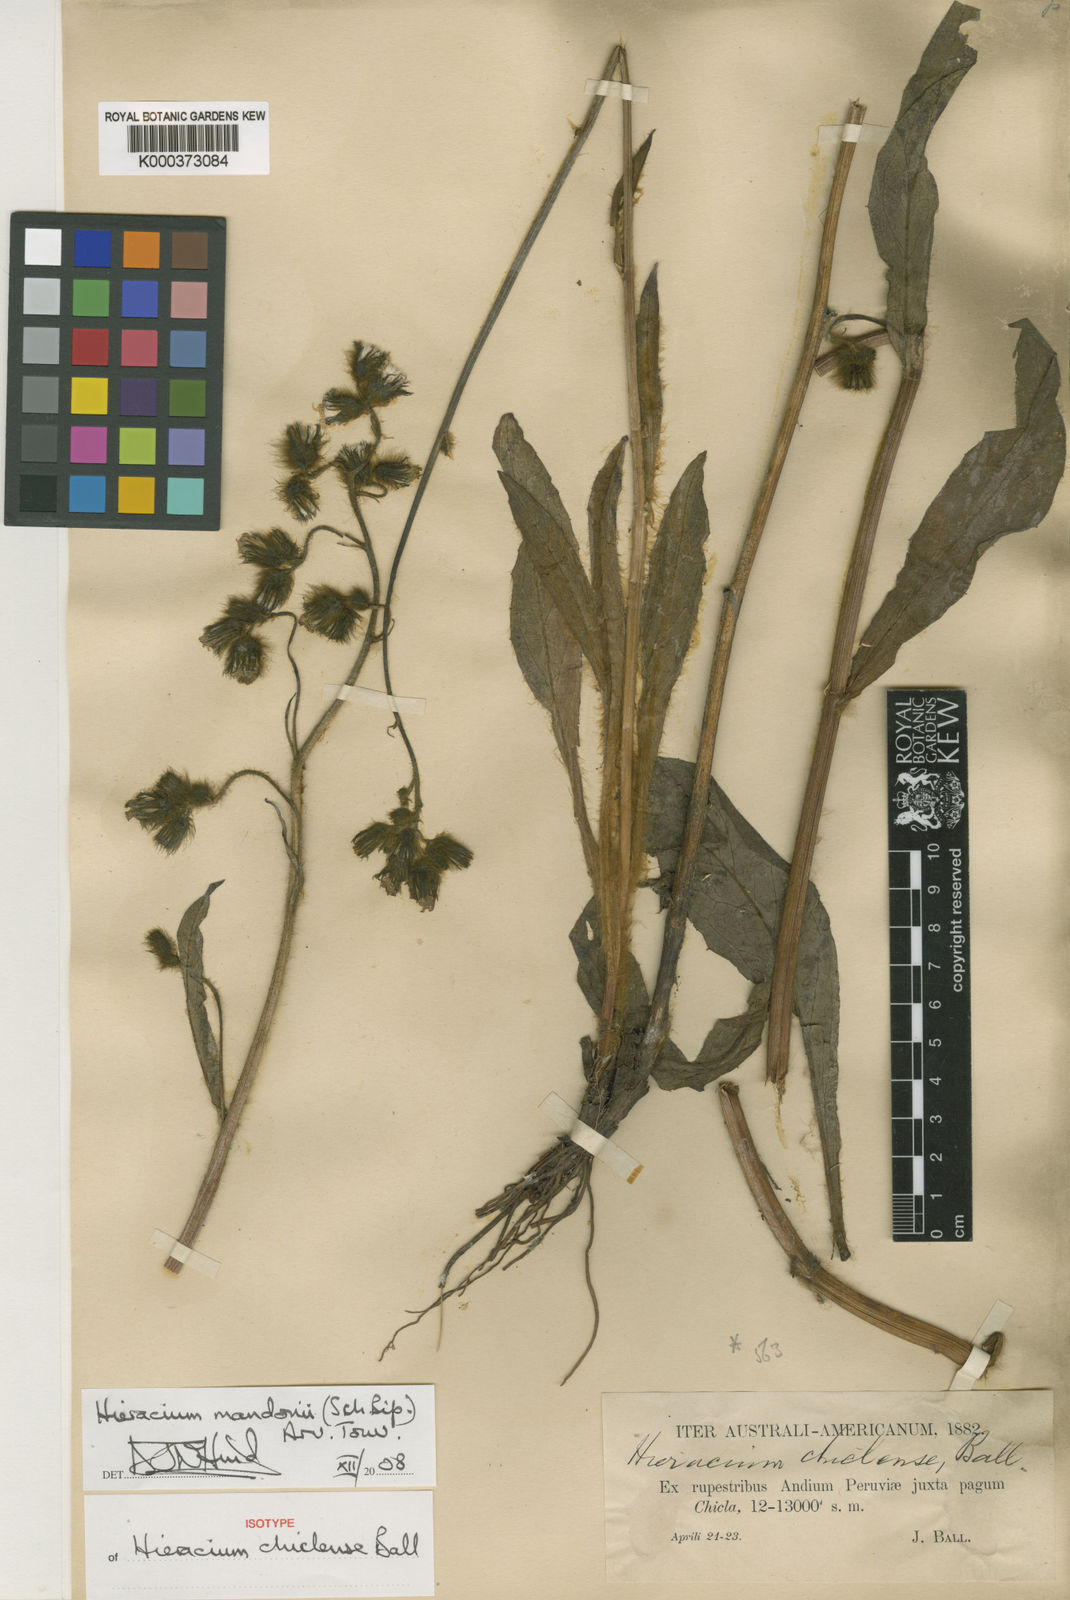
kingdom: Plantae
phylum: Tracheophyta
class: Magnoliopsida
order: Asterales
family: Asteraceae
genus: Hieracium
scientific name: Hieracium
